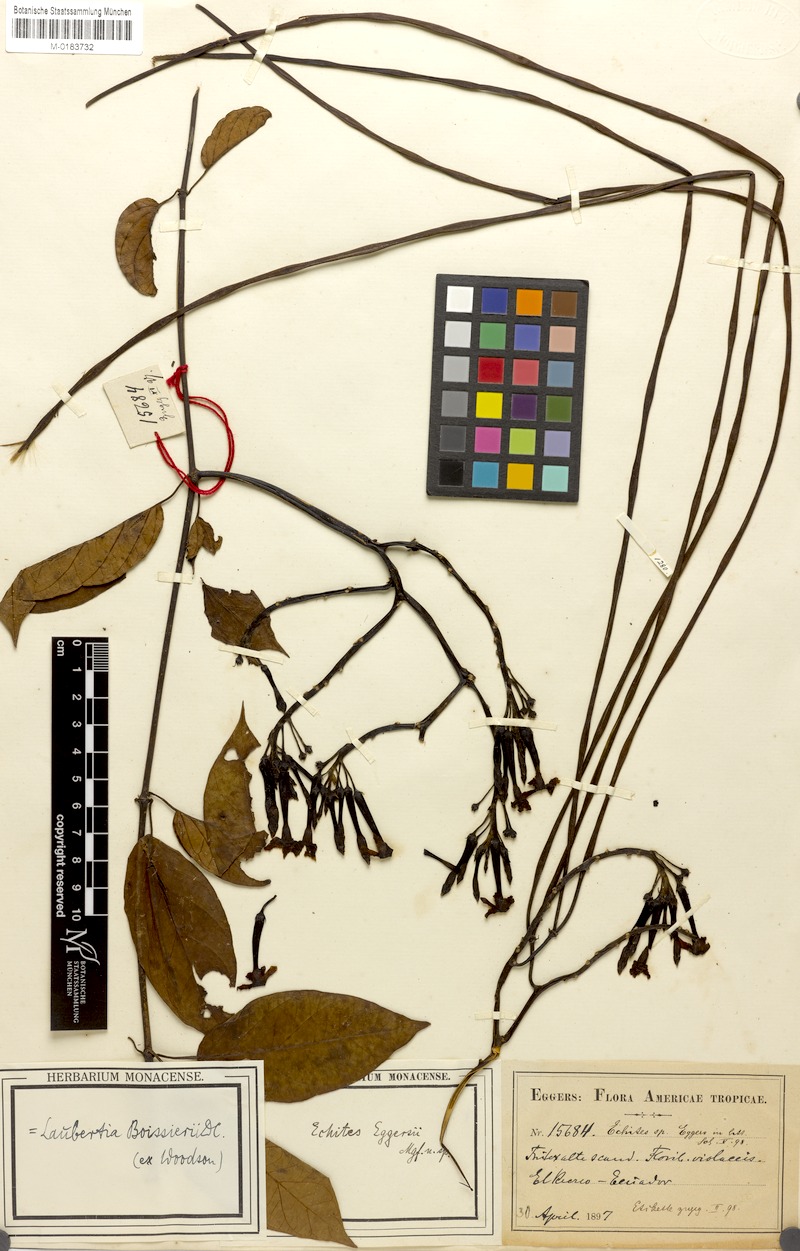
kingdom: Plantae
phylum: Tracheophyta
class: Magnoliopsida
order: Gentianales
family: Apocynaceae
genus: Laubertia
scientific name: Laubertia boissieri
